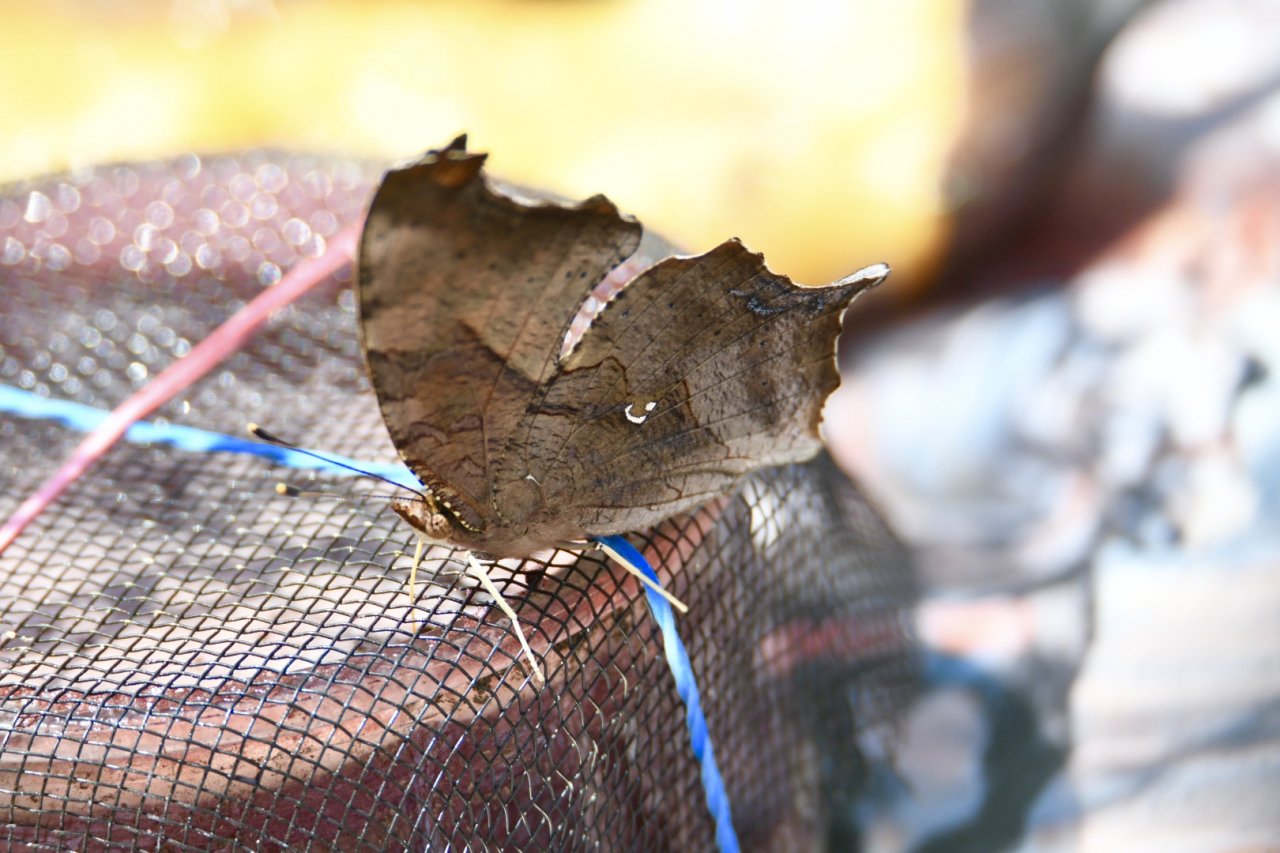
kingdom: Animalia
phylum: Arthropoda
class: Insecta
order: Lepidoptera
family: Nymphalidae
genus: Polygonia
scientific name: Polygonia interrogationis
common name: Question Mark
